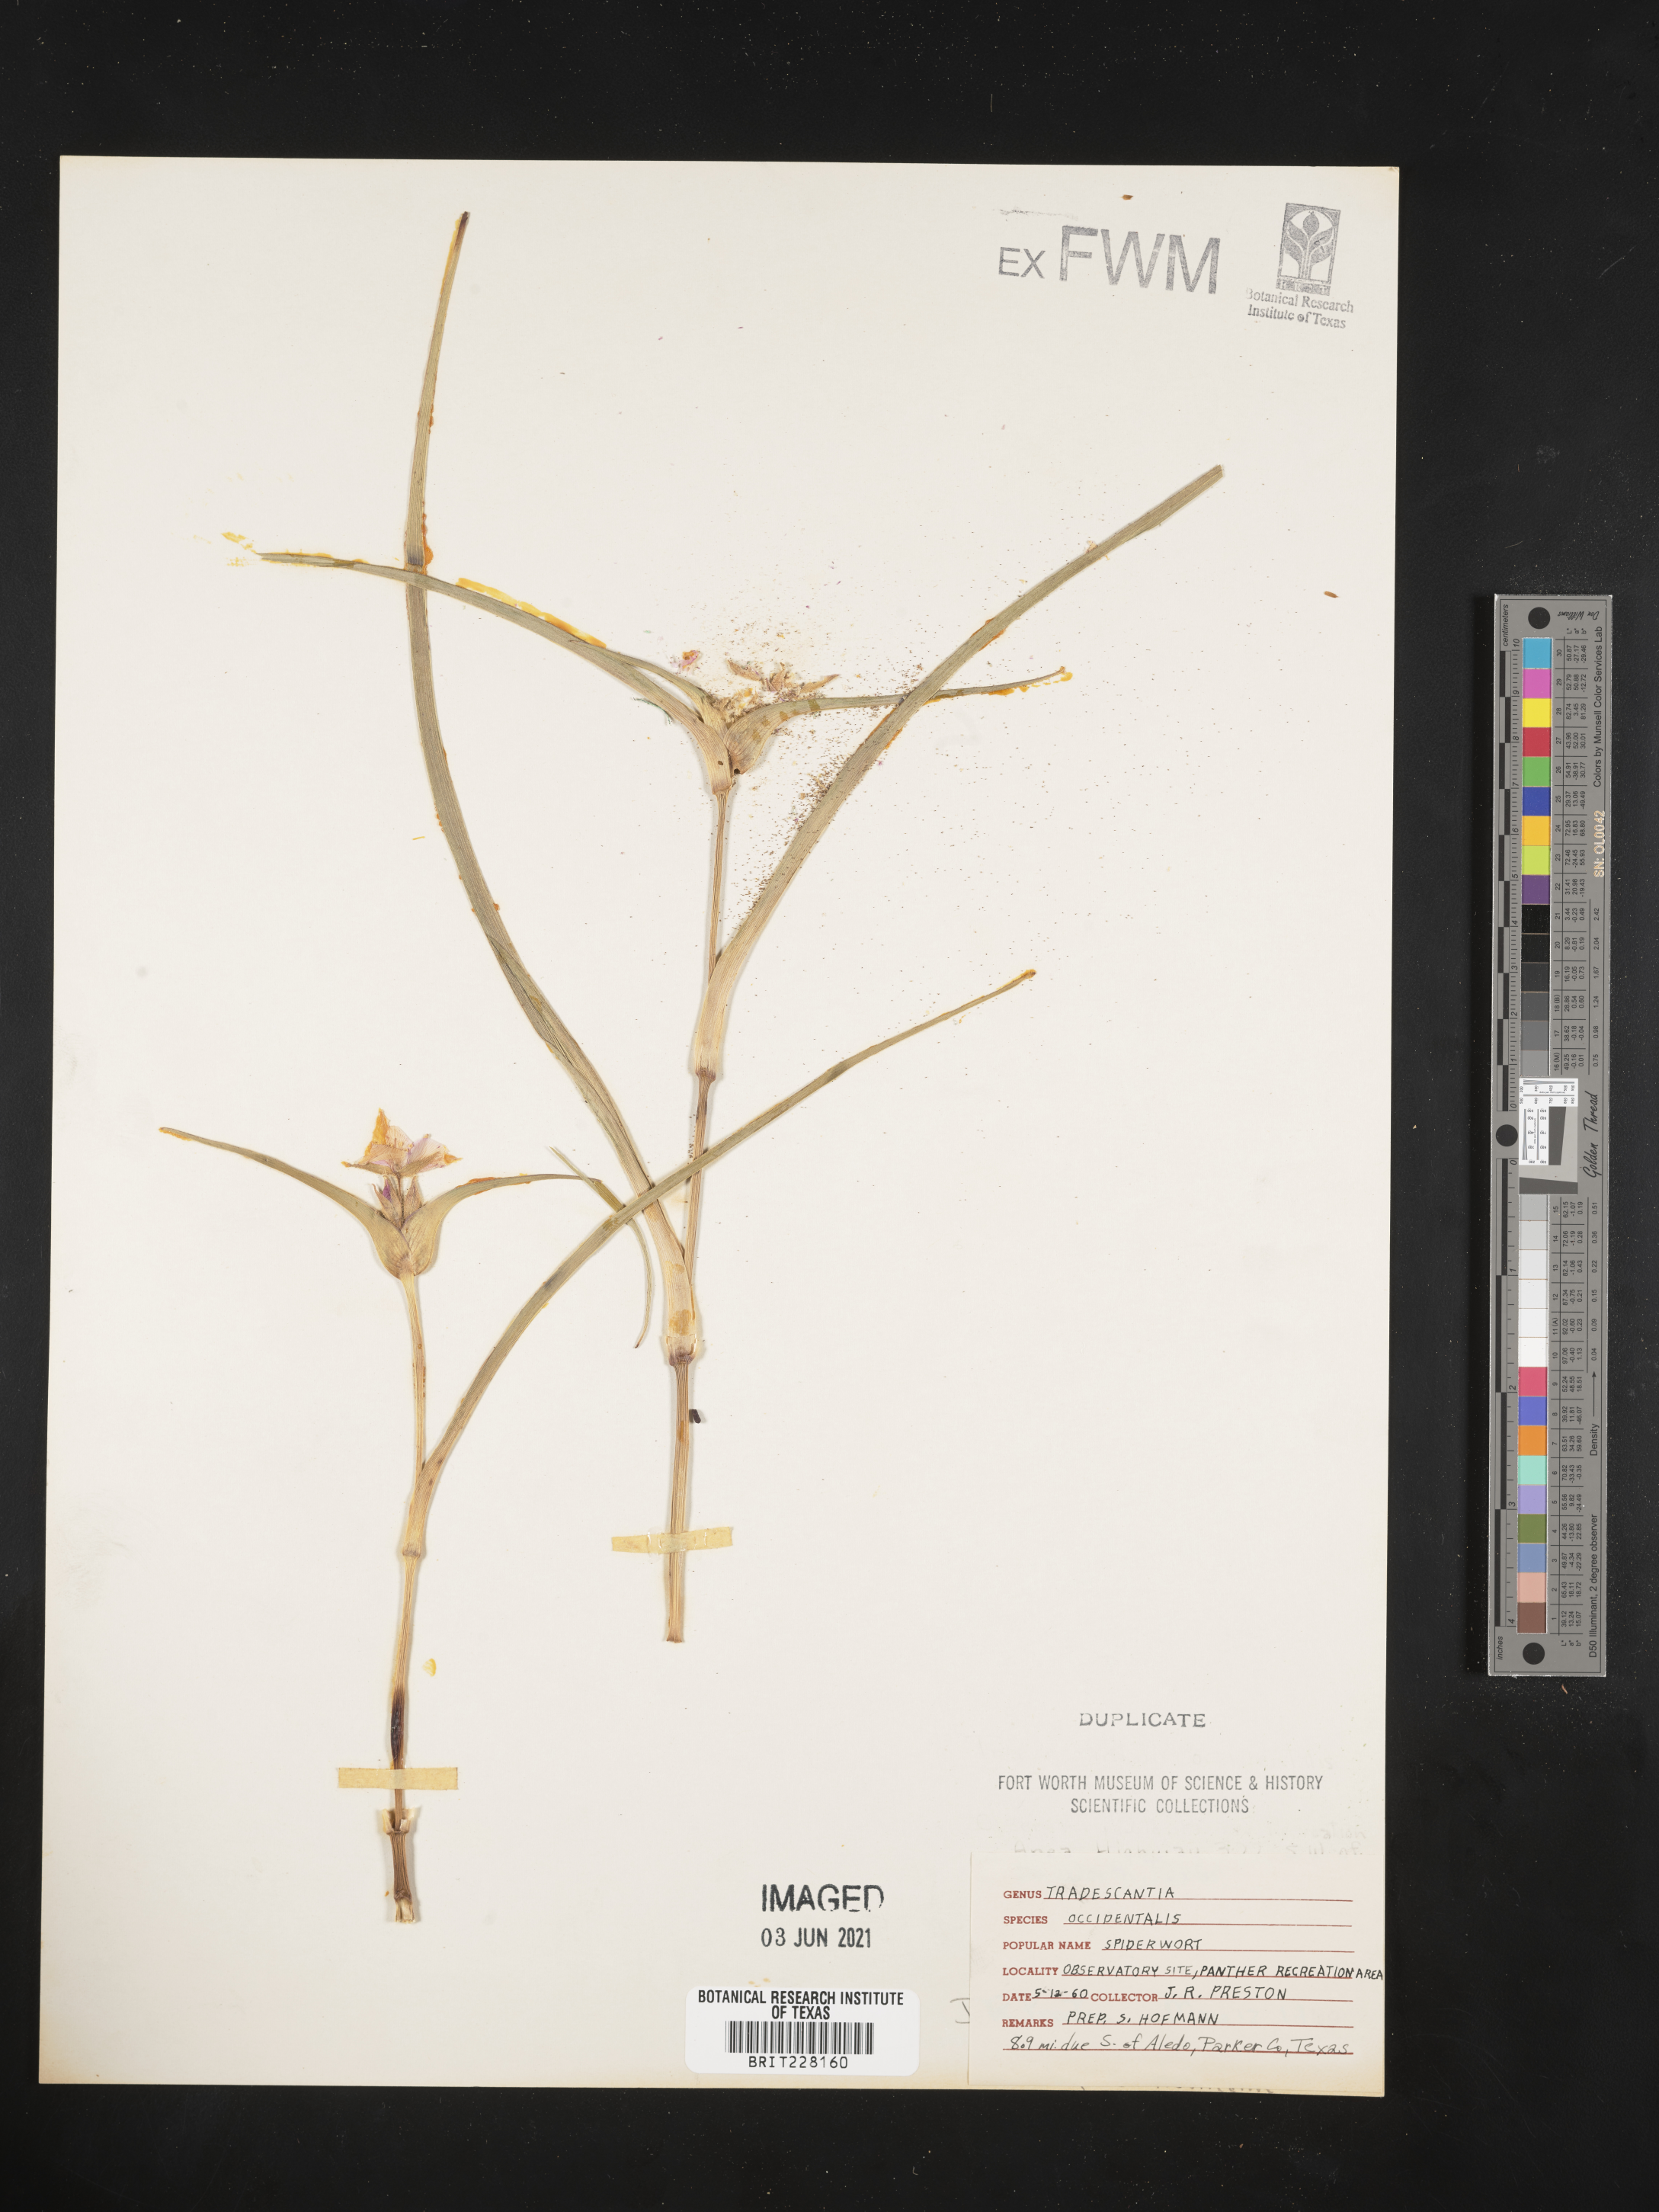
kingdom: Plantae
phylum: Tracheophyta
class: Liliopsida
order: Commelinales
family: Commelinaceae
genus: Tradescantia
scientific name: Tradescantia occidentalis
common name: Prairie spiderwort
